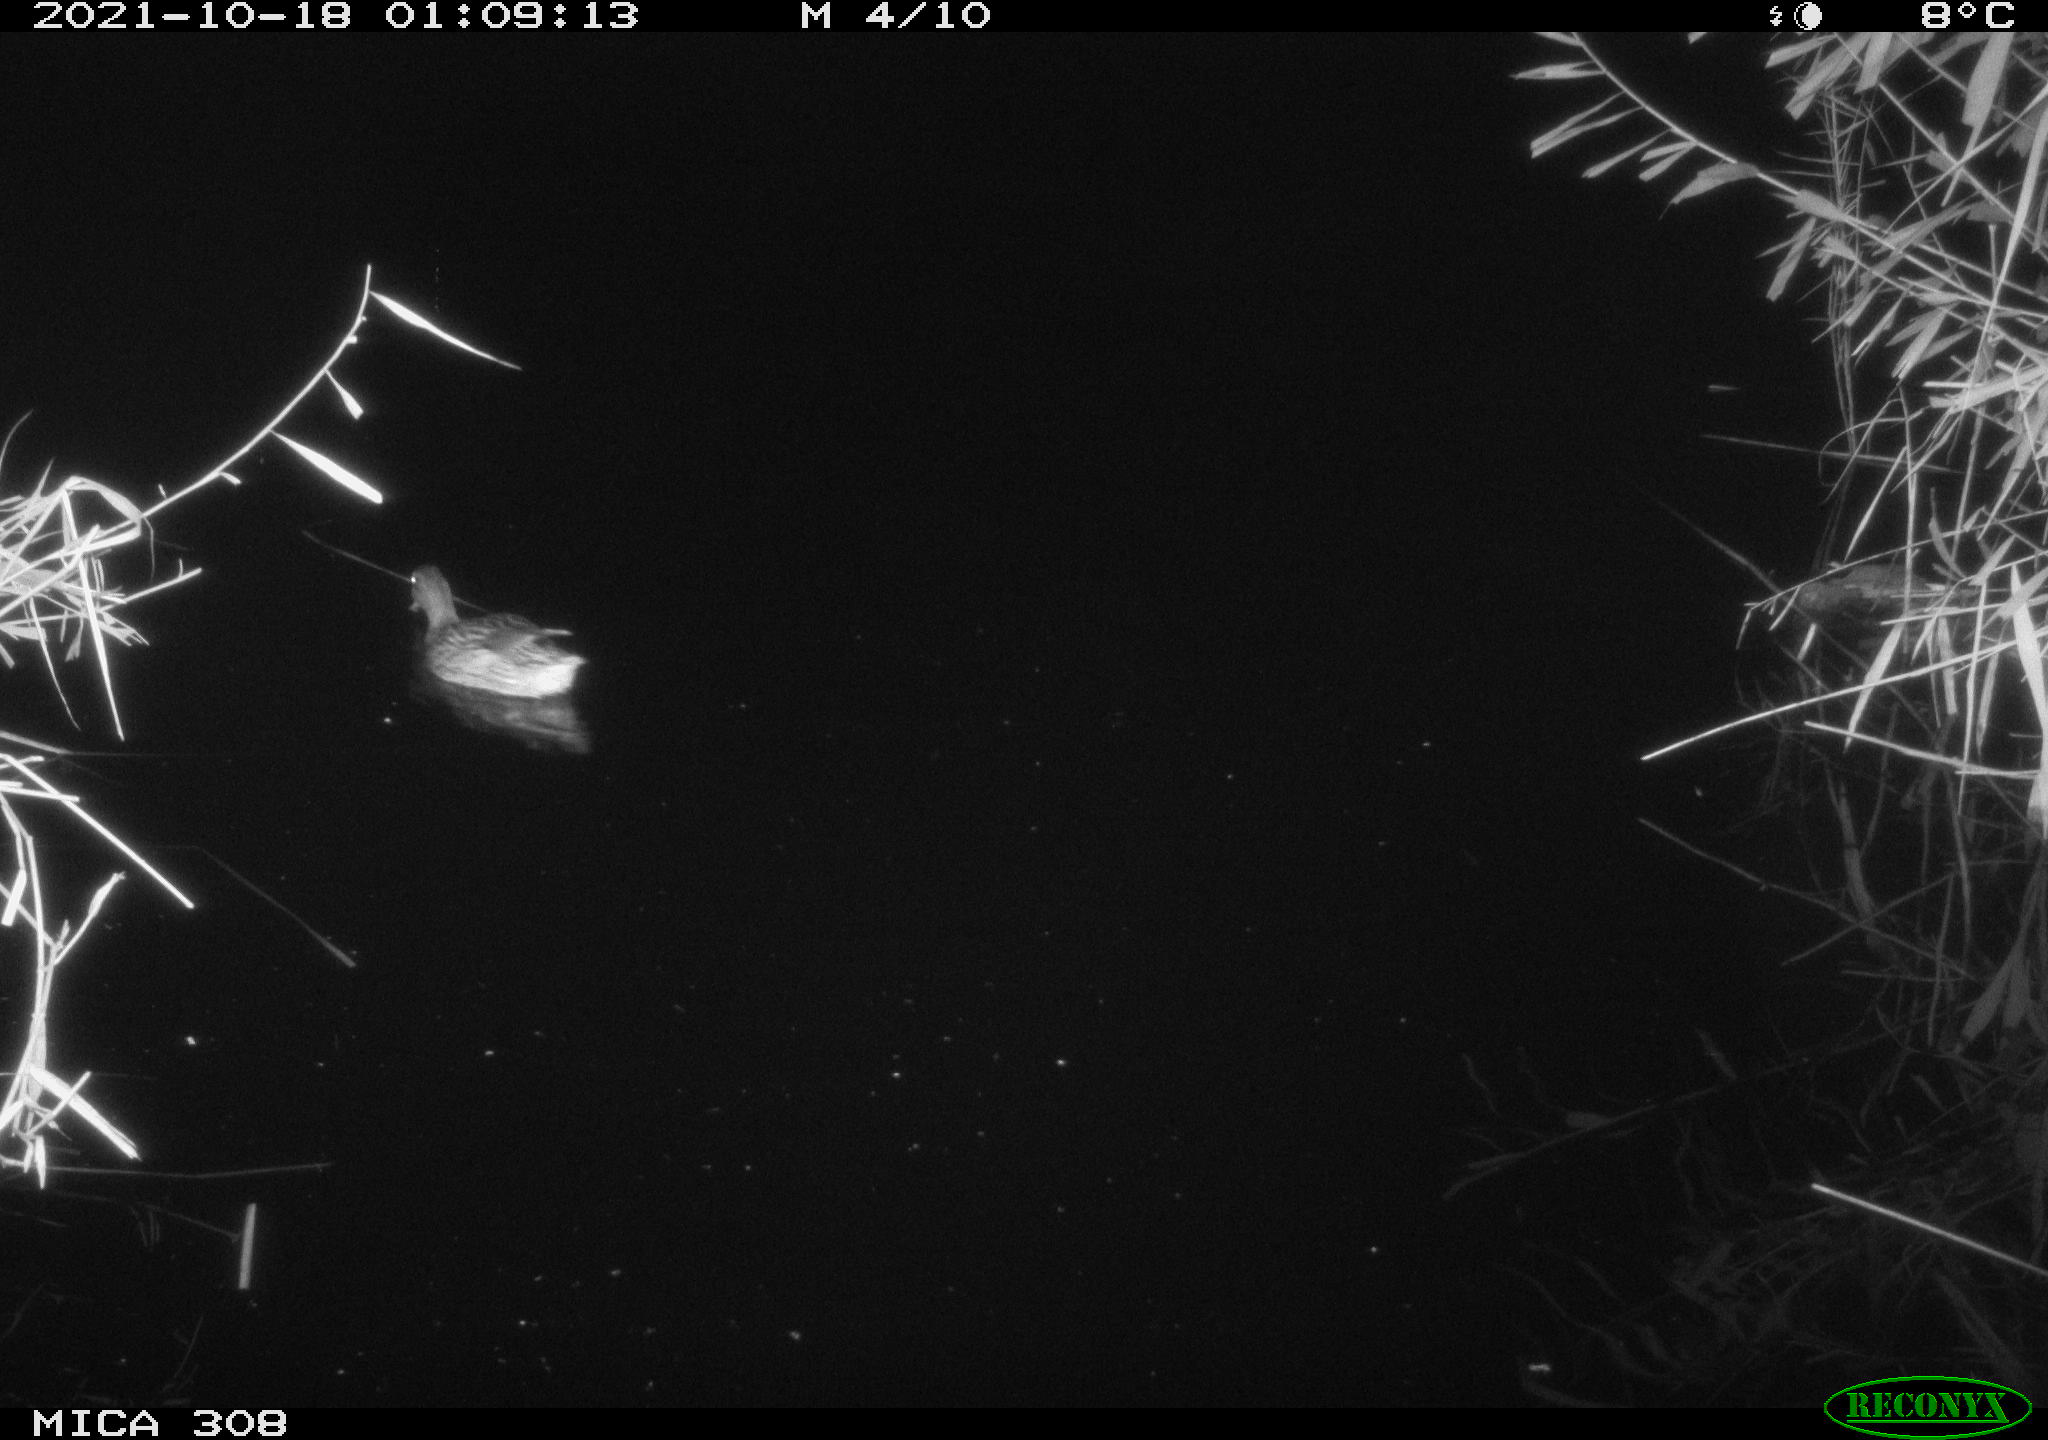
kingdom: Animalia
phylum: Chordata
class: Aves
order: Anseriformes
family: Anatidae
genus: Anas
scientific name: Anas platyrhynchos
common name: Mallard
